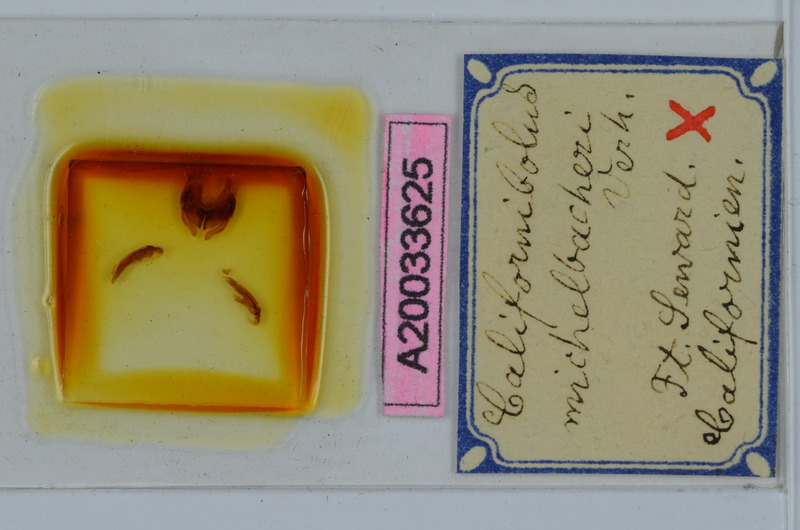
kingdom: Animalia
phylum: Arthropoda
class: Diplopoda
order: Spirobolida
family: Spirobolidae
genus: Tylobolus
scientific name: Tylobolus uncigerus
